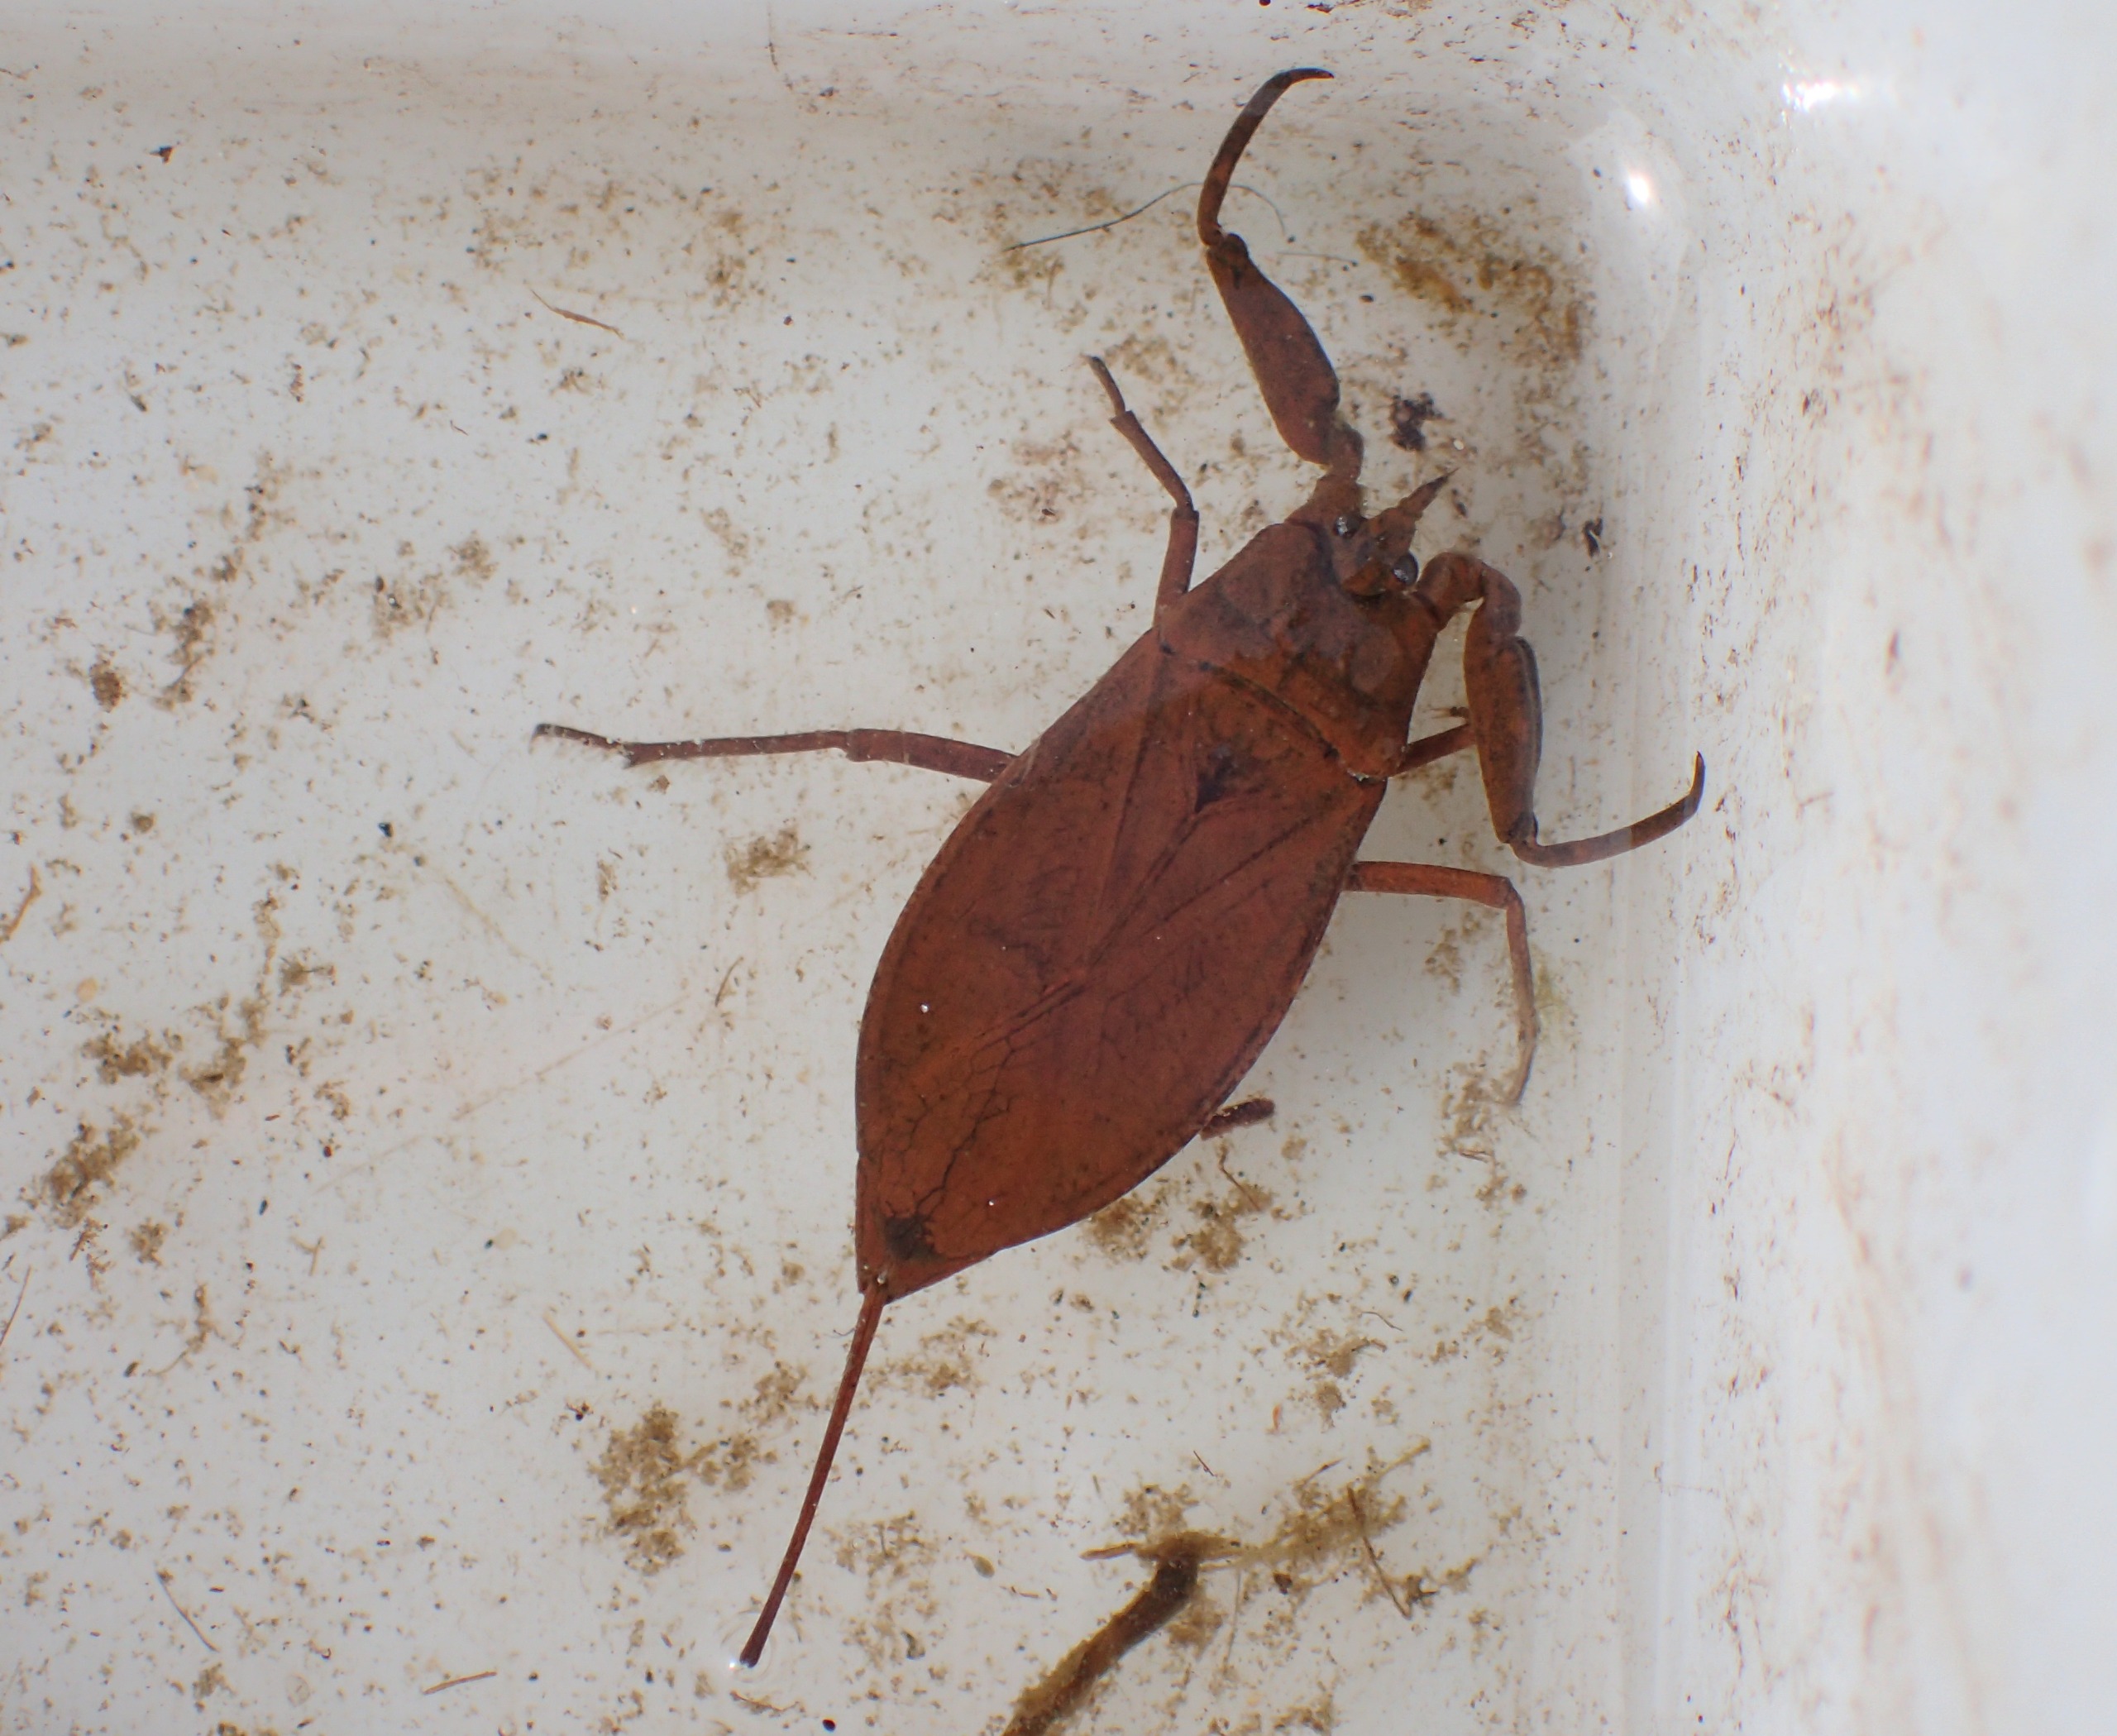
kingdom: Animalia
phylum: Arthropoda
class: Insecta
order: Hemiptera
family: Nepidae
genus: Nepa
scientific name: Nepa cinerea
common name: Skorpiontæge
